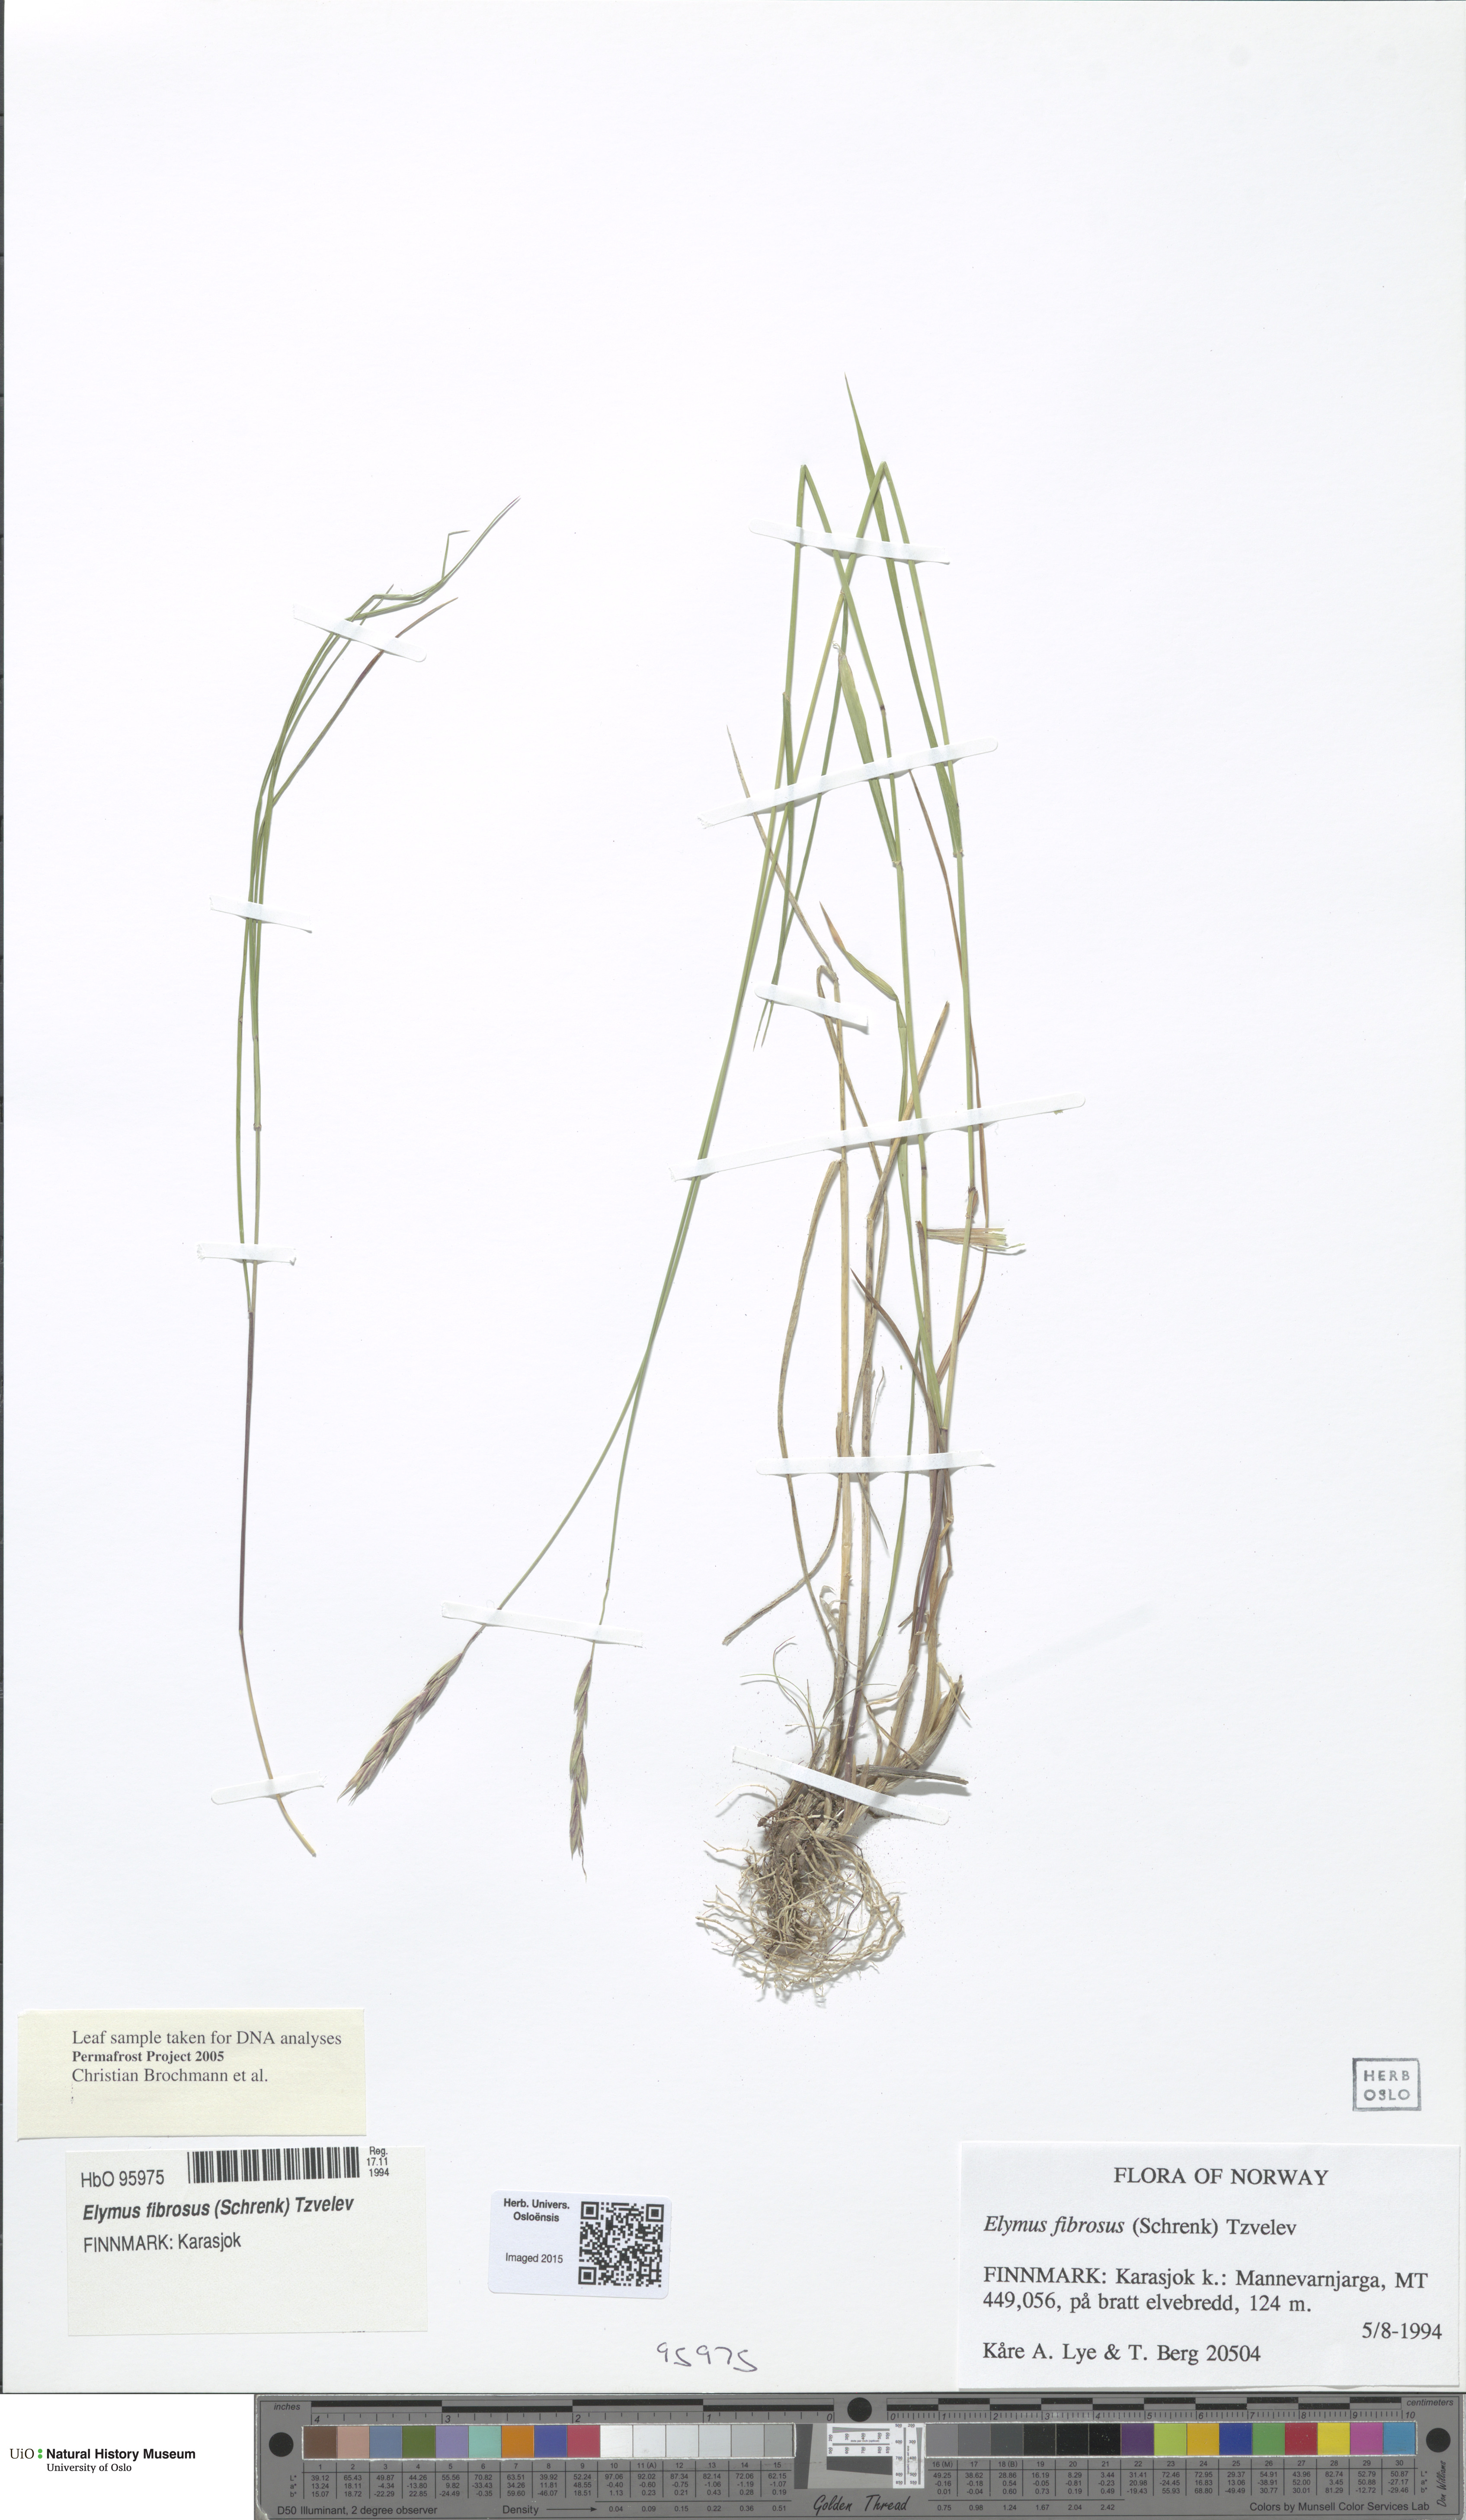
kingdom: Plantae
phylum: Tracheophyta
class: Liliopsida
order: Poales
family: Poaceae
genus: Elymus
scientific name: Elymus fibrosus
